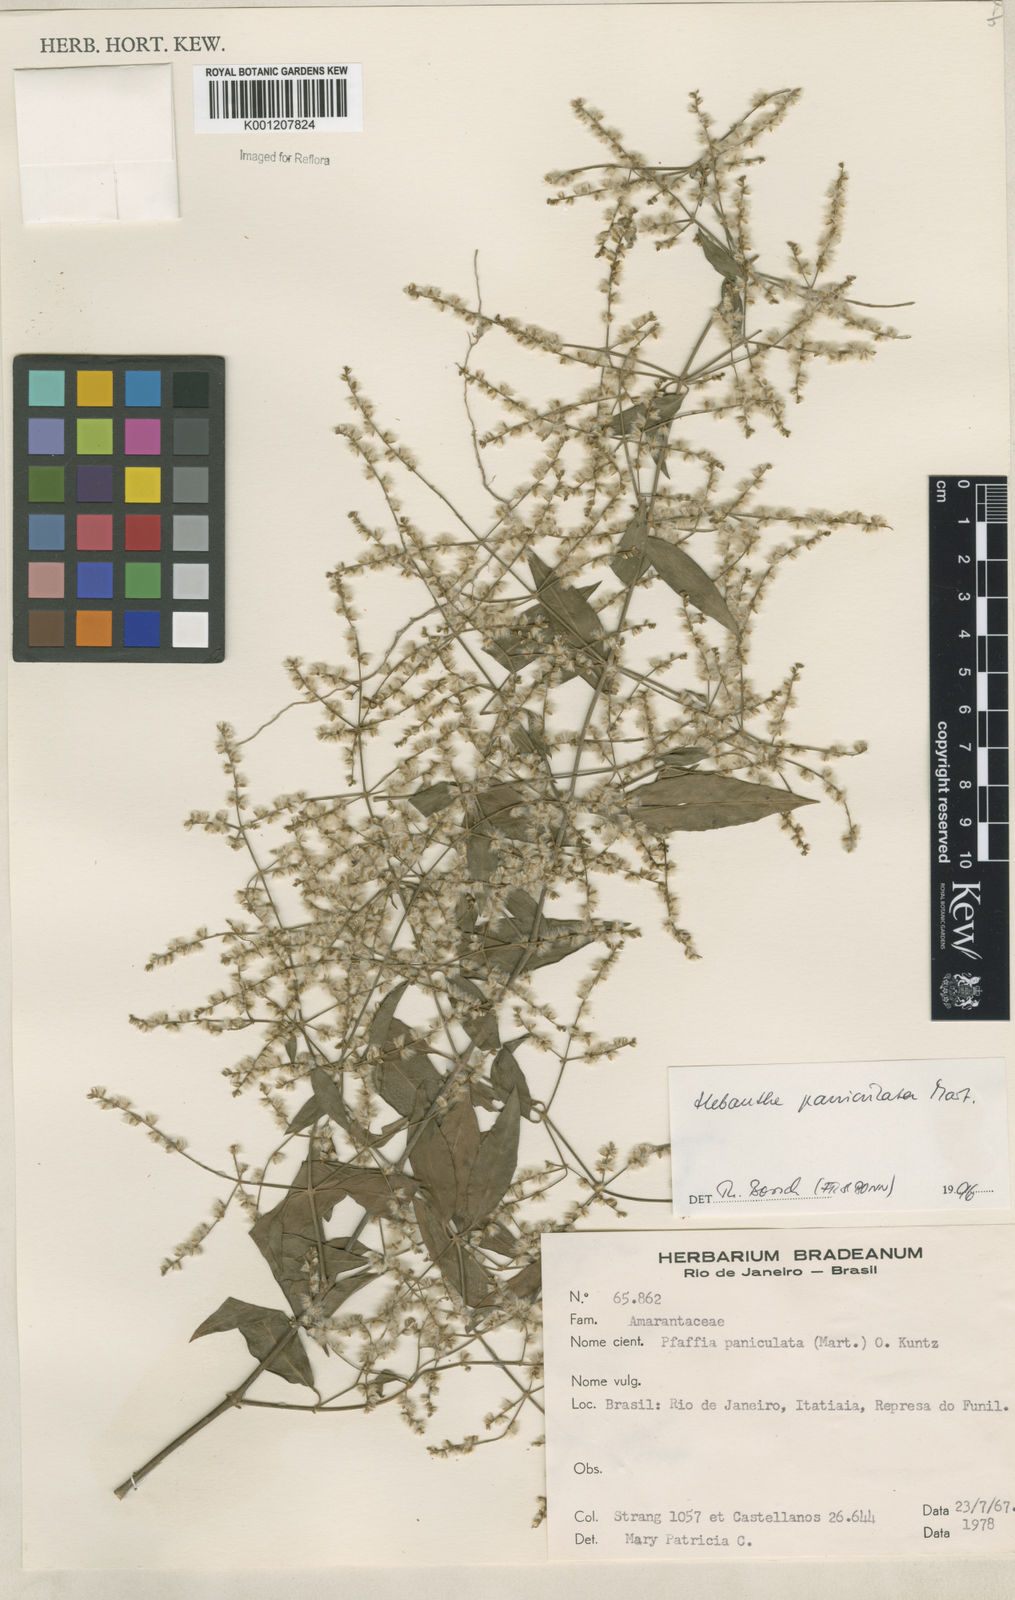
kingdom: Plantae
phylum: Tracheophyta
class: Magnoliopsida
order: Caryophyllales
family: Amaranthaceae
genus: Hebanthe
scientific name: Hebanthe erianthos
